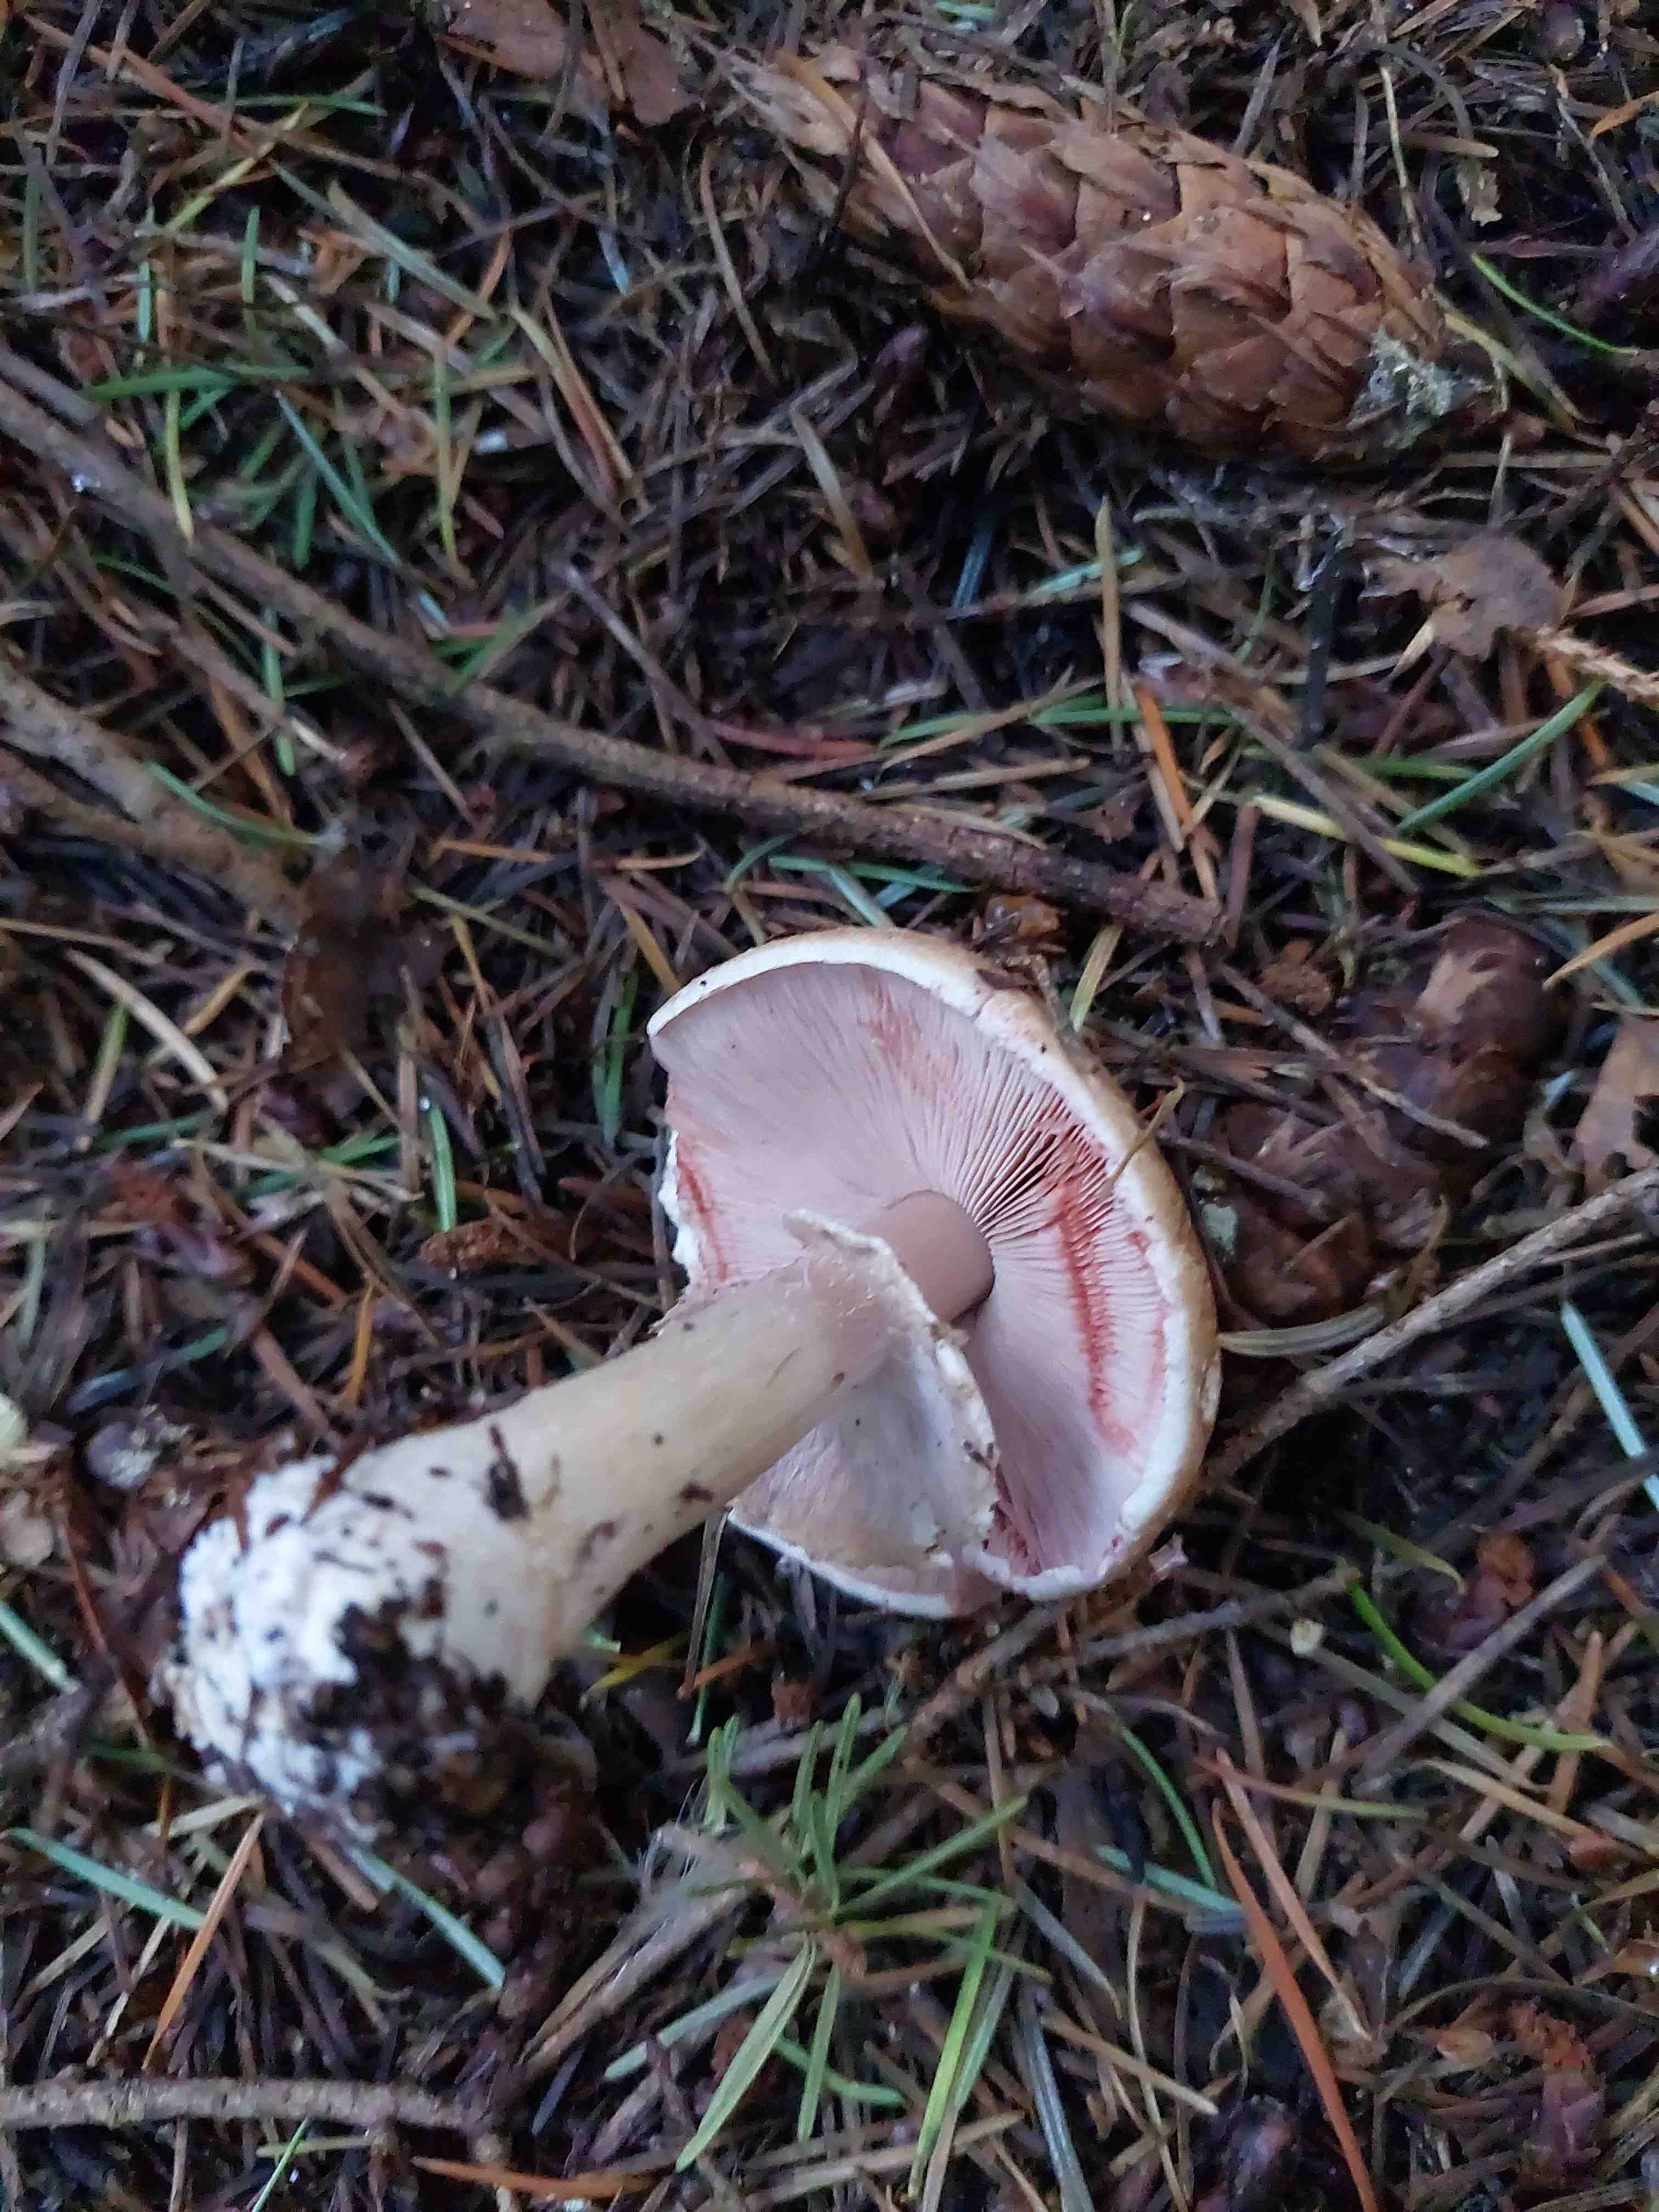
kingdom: Fungi
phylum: Basidiomycota
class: Agaricomycetes
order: Agaricales
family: Agaricaceae
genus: Agaricus
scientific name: Agaricus sylvaticus
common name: lille blod-champignon
